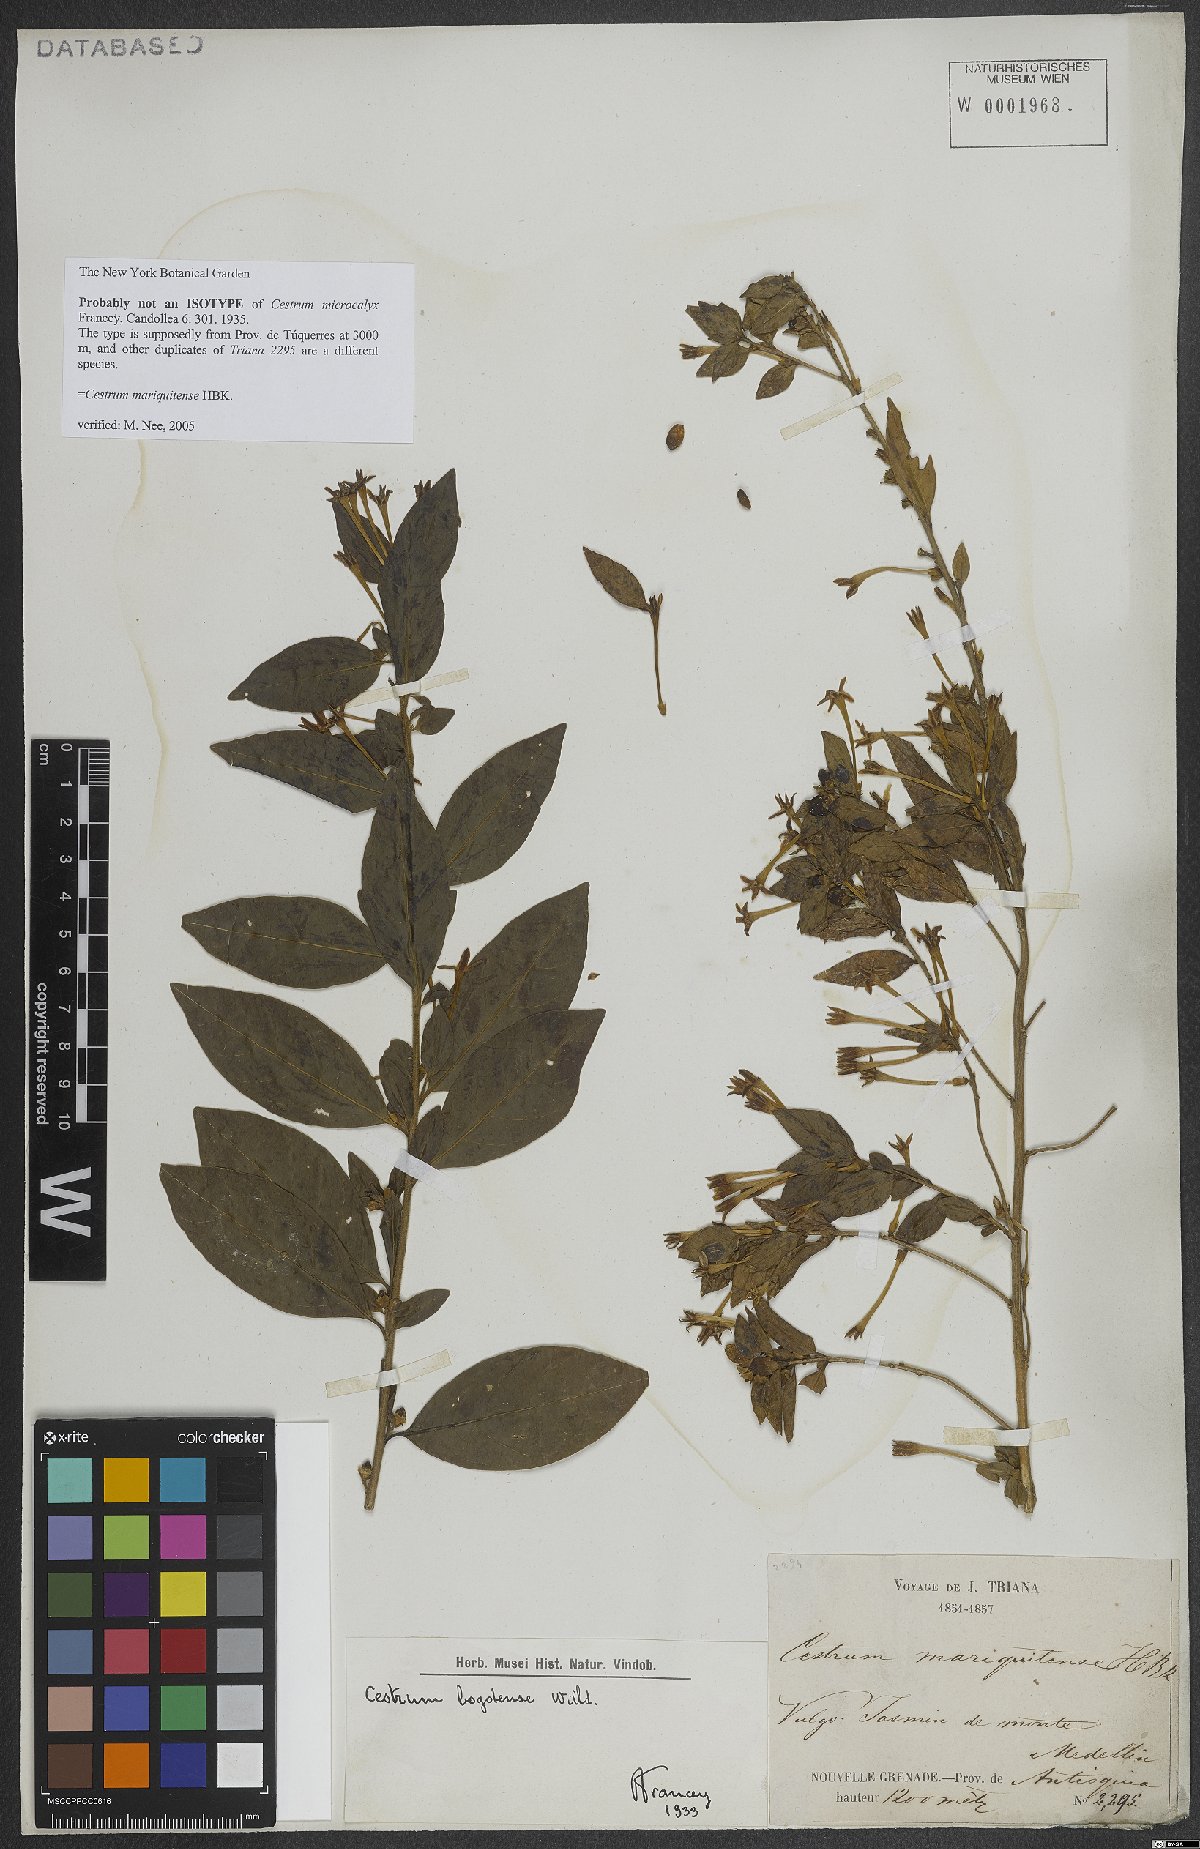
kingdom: Plantae
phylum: Tracheophyta
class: Magnoliopsida
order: Solanales
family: Solanaceae
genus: Cestrum
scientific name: Cestrum mariquitense
